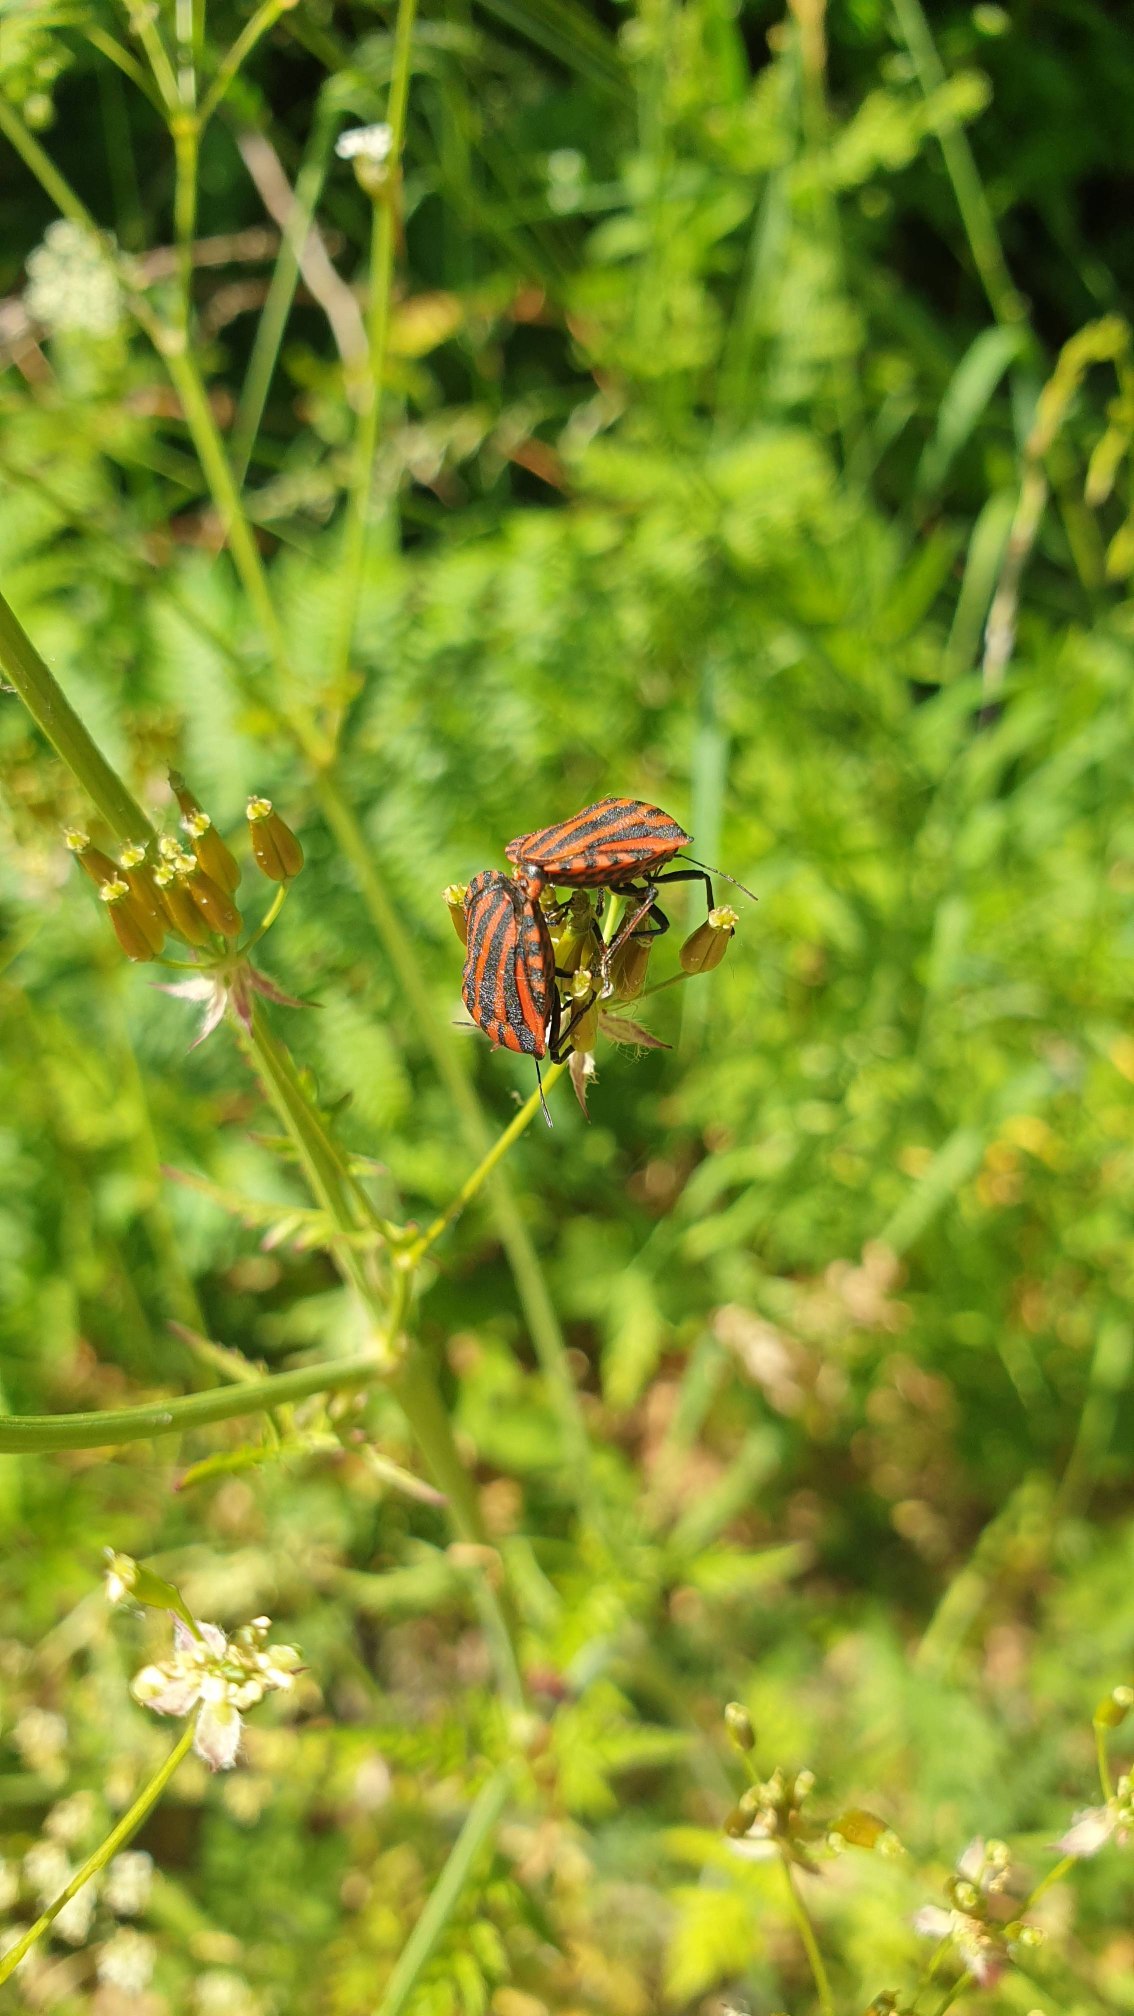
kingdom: Animalia
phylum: Arthropoda
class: Insecta
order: Hemiptera
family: Pentatomidae
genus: Graphosoma
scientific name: Graphosoma italicum
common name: Stribetæge
